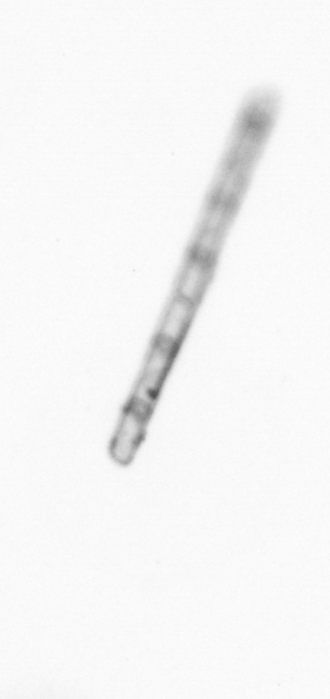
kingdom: Chromista
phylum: Ochrophyta
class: Bacillariophyceae
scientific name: Bacillariophyceae
